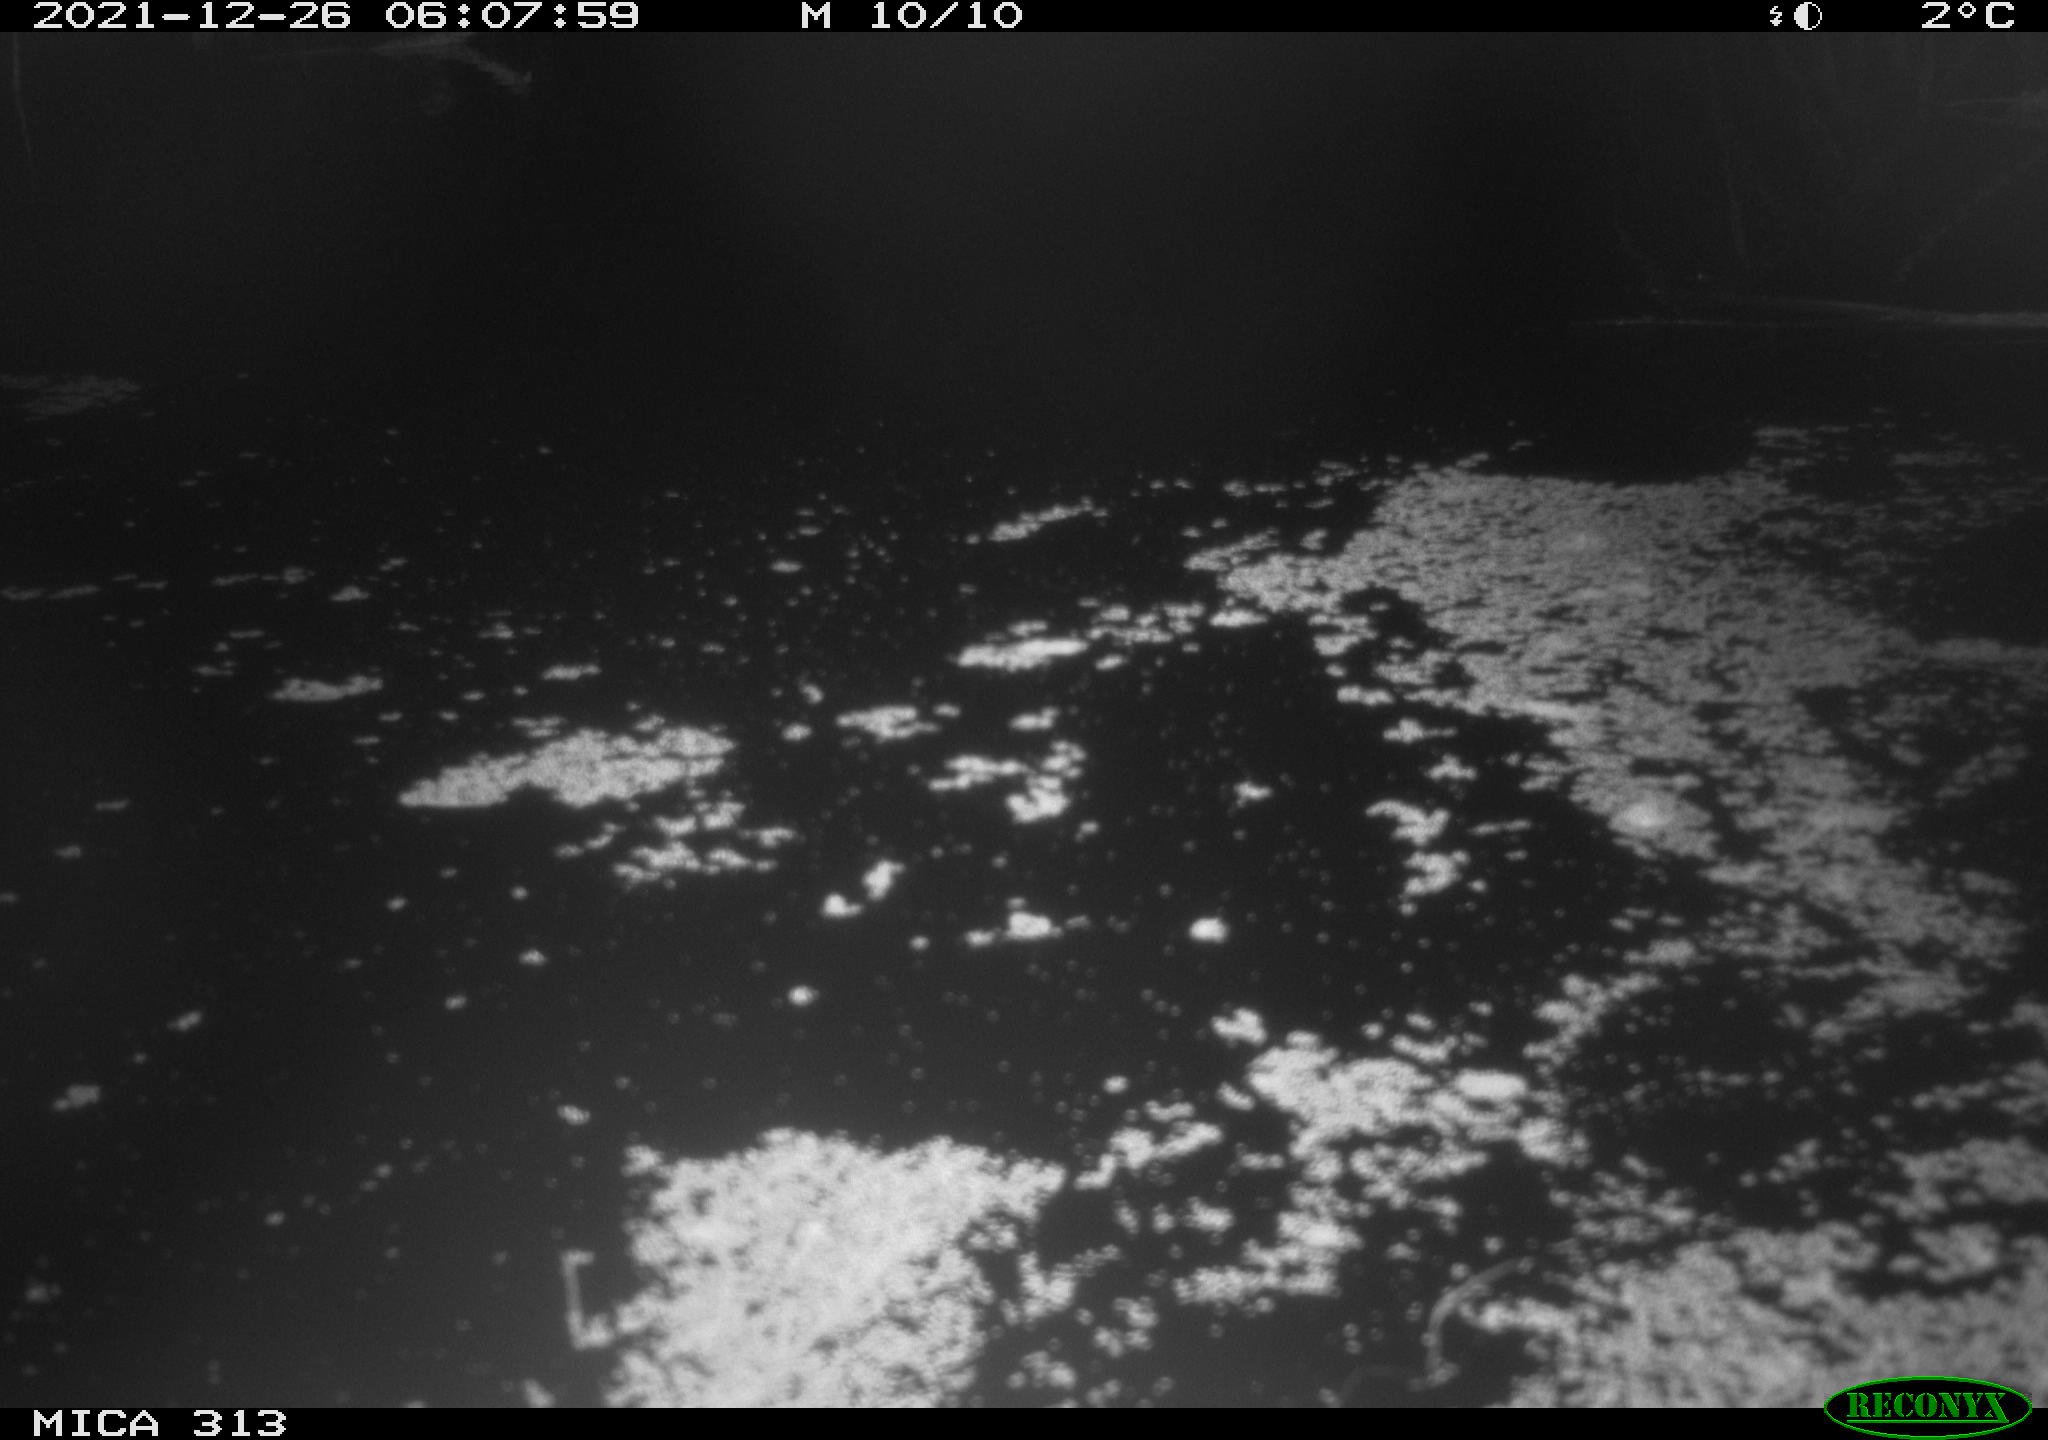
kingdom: Animalia
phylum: Chordata
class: Aves
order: Gruiformes
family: Rallidae
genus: Fulica
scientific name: Fulica atra
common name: Eurasian coot
